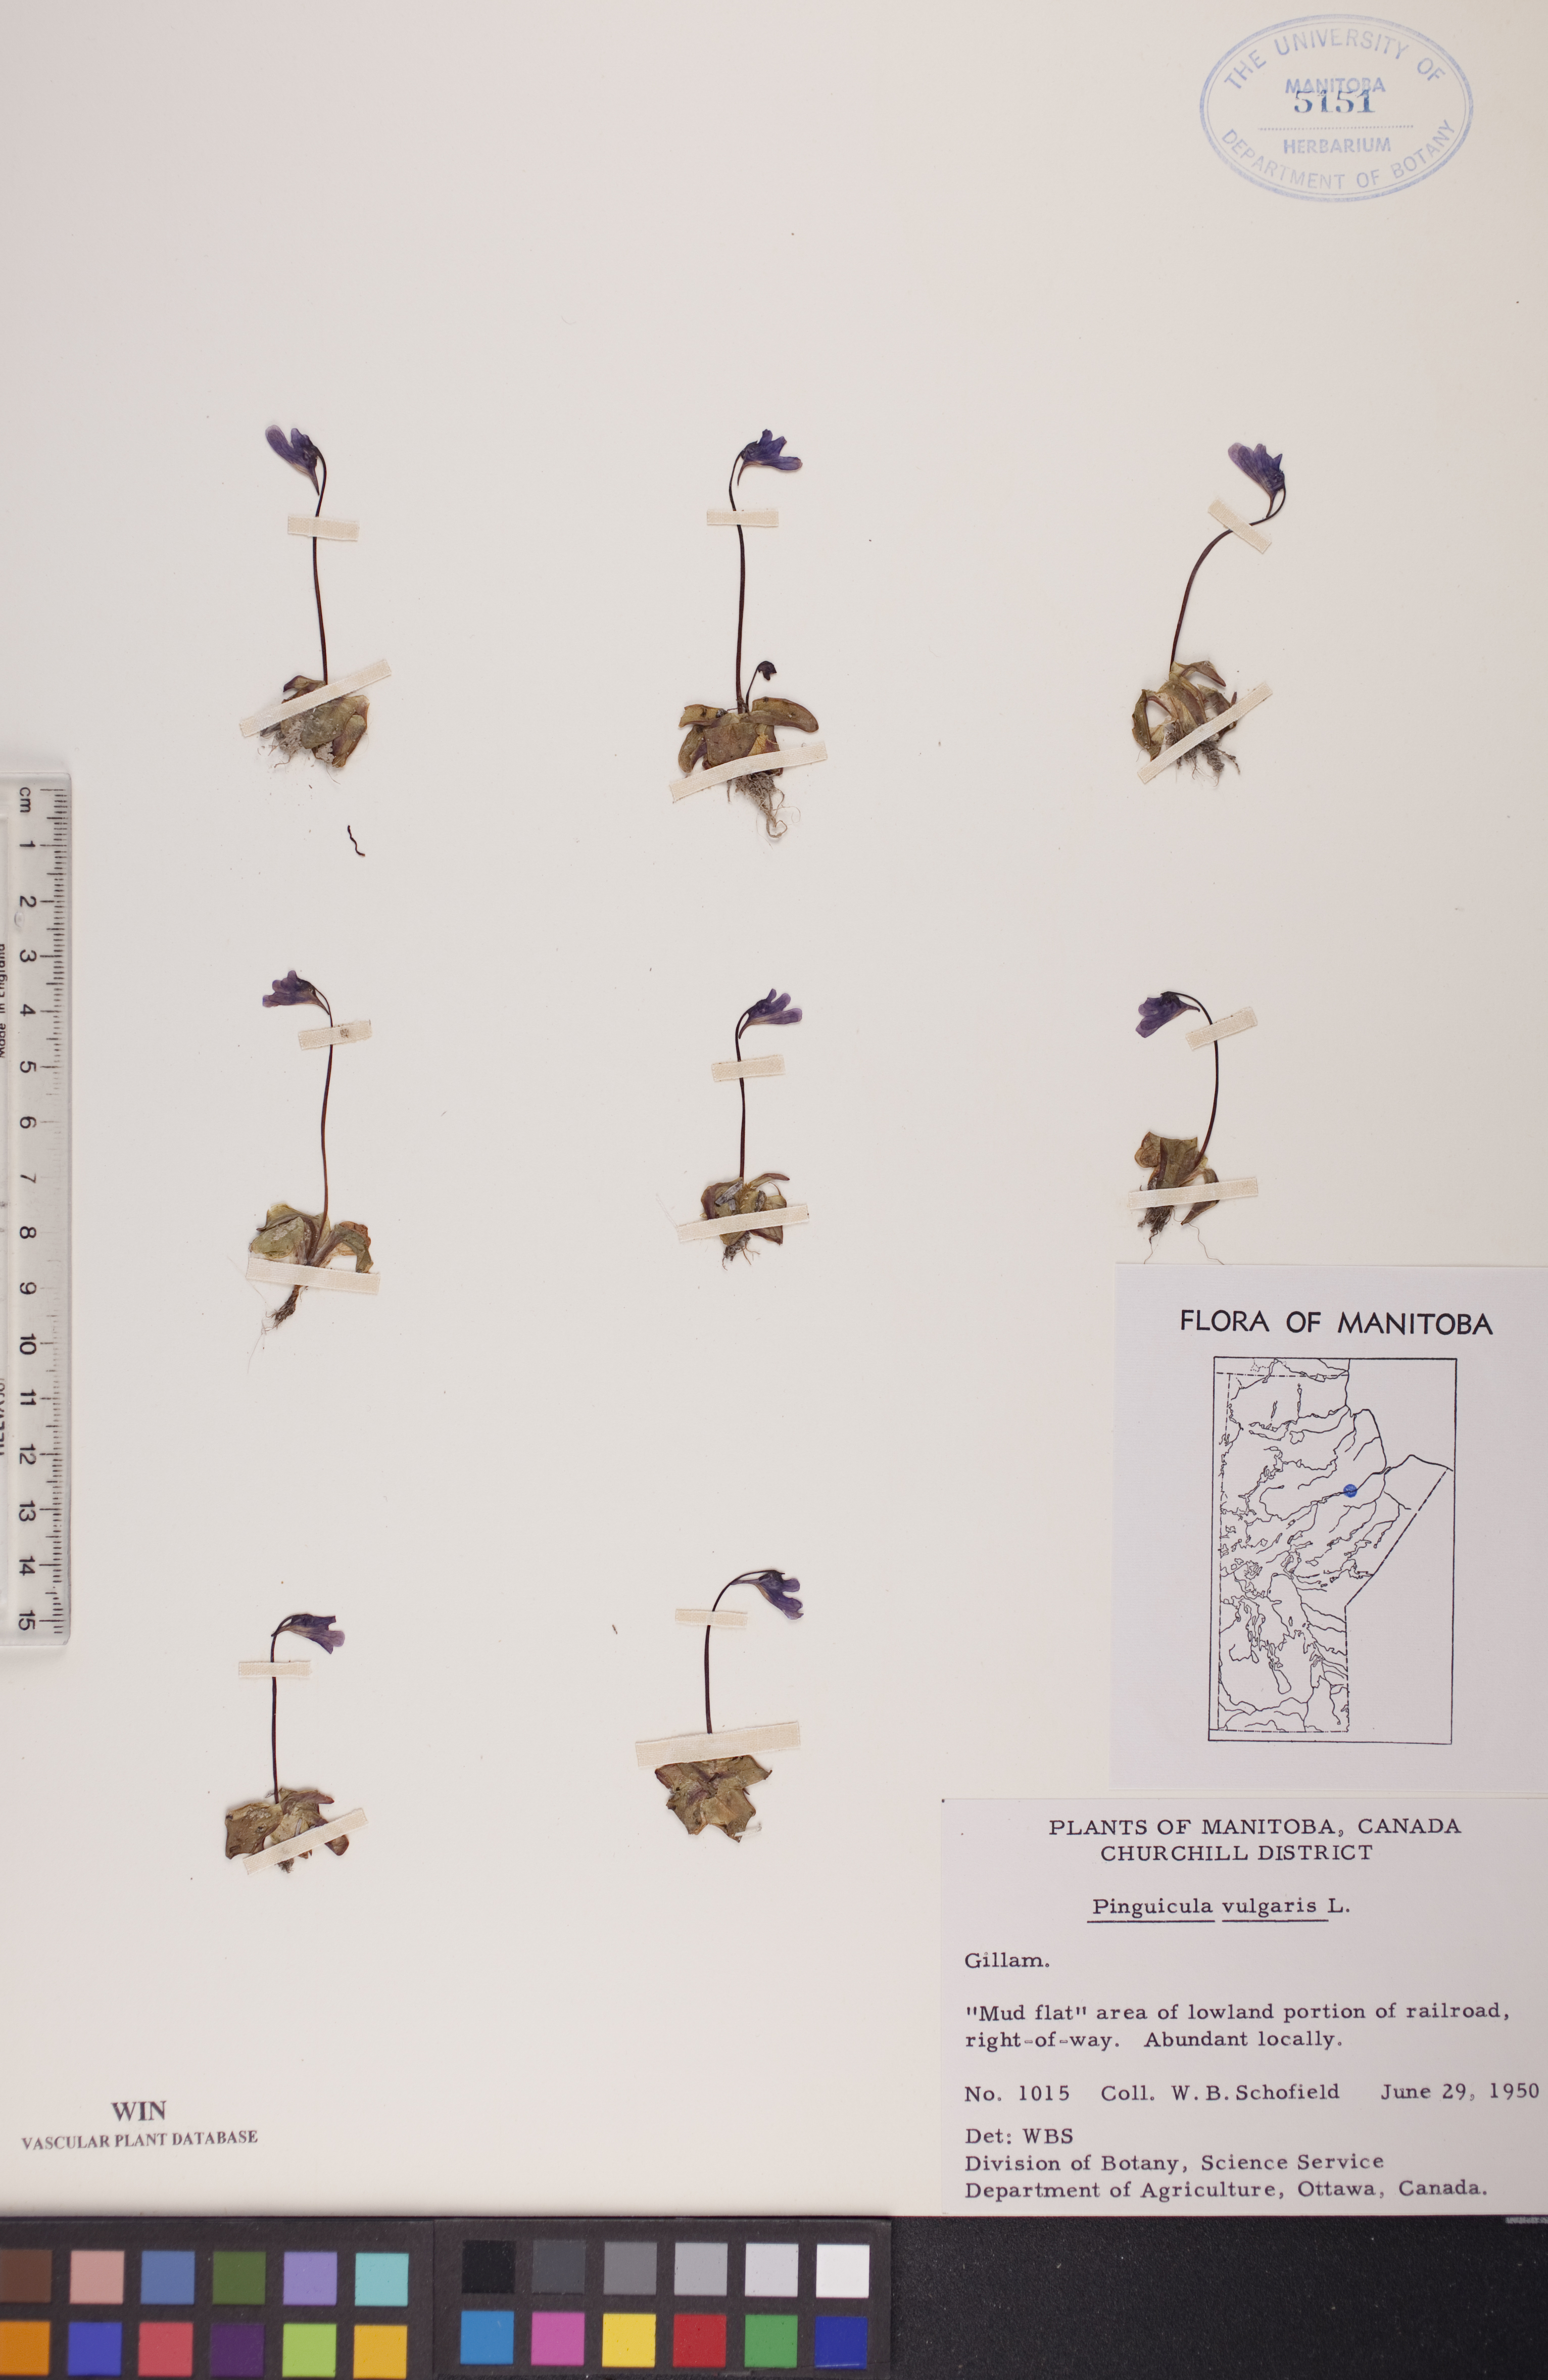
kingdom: Plantae
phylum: Tracheophyta
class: Magnoliopsida
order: Lamiales
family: Lentibulariaceae
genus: Pinguicula
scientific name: Pinguicula vulgaris
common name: Common butterwort
